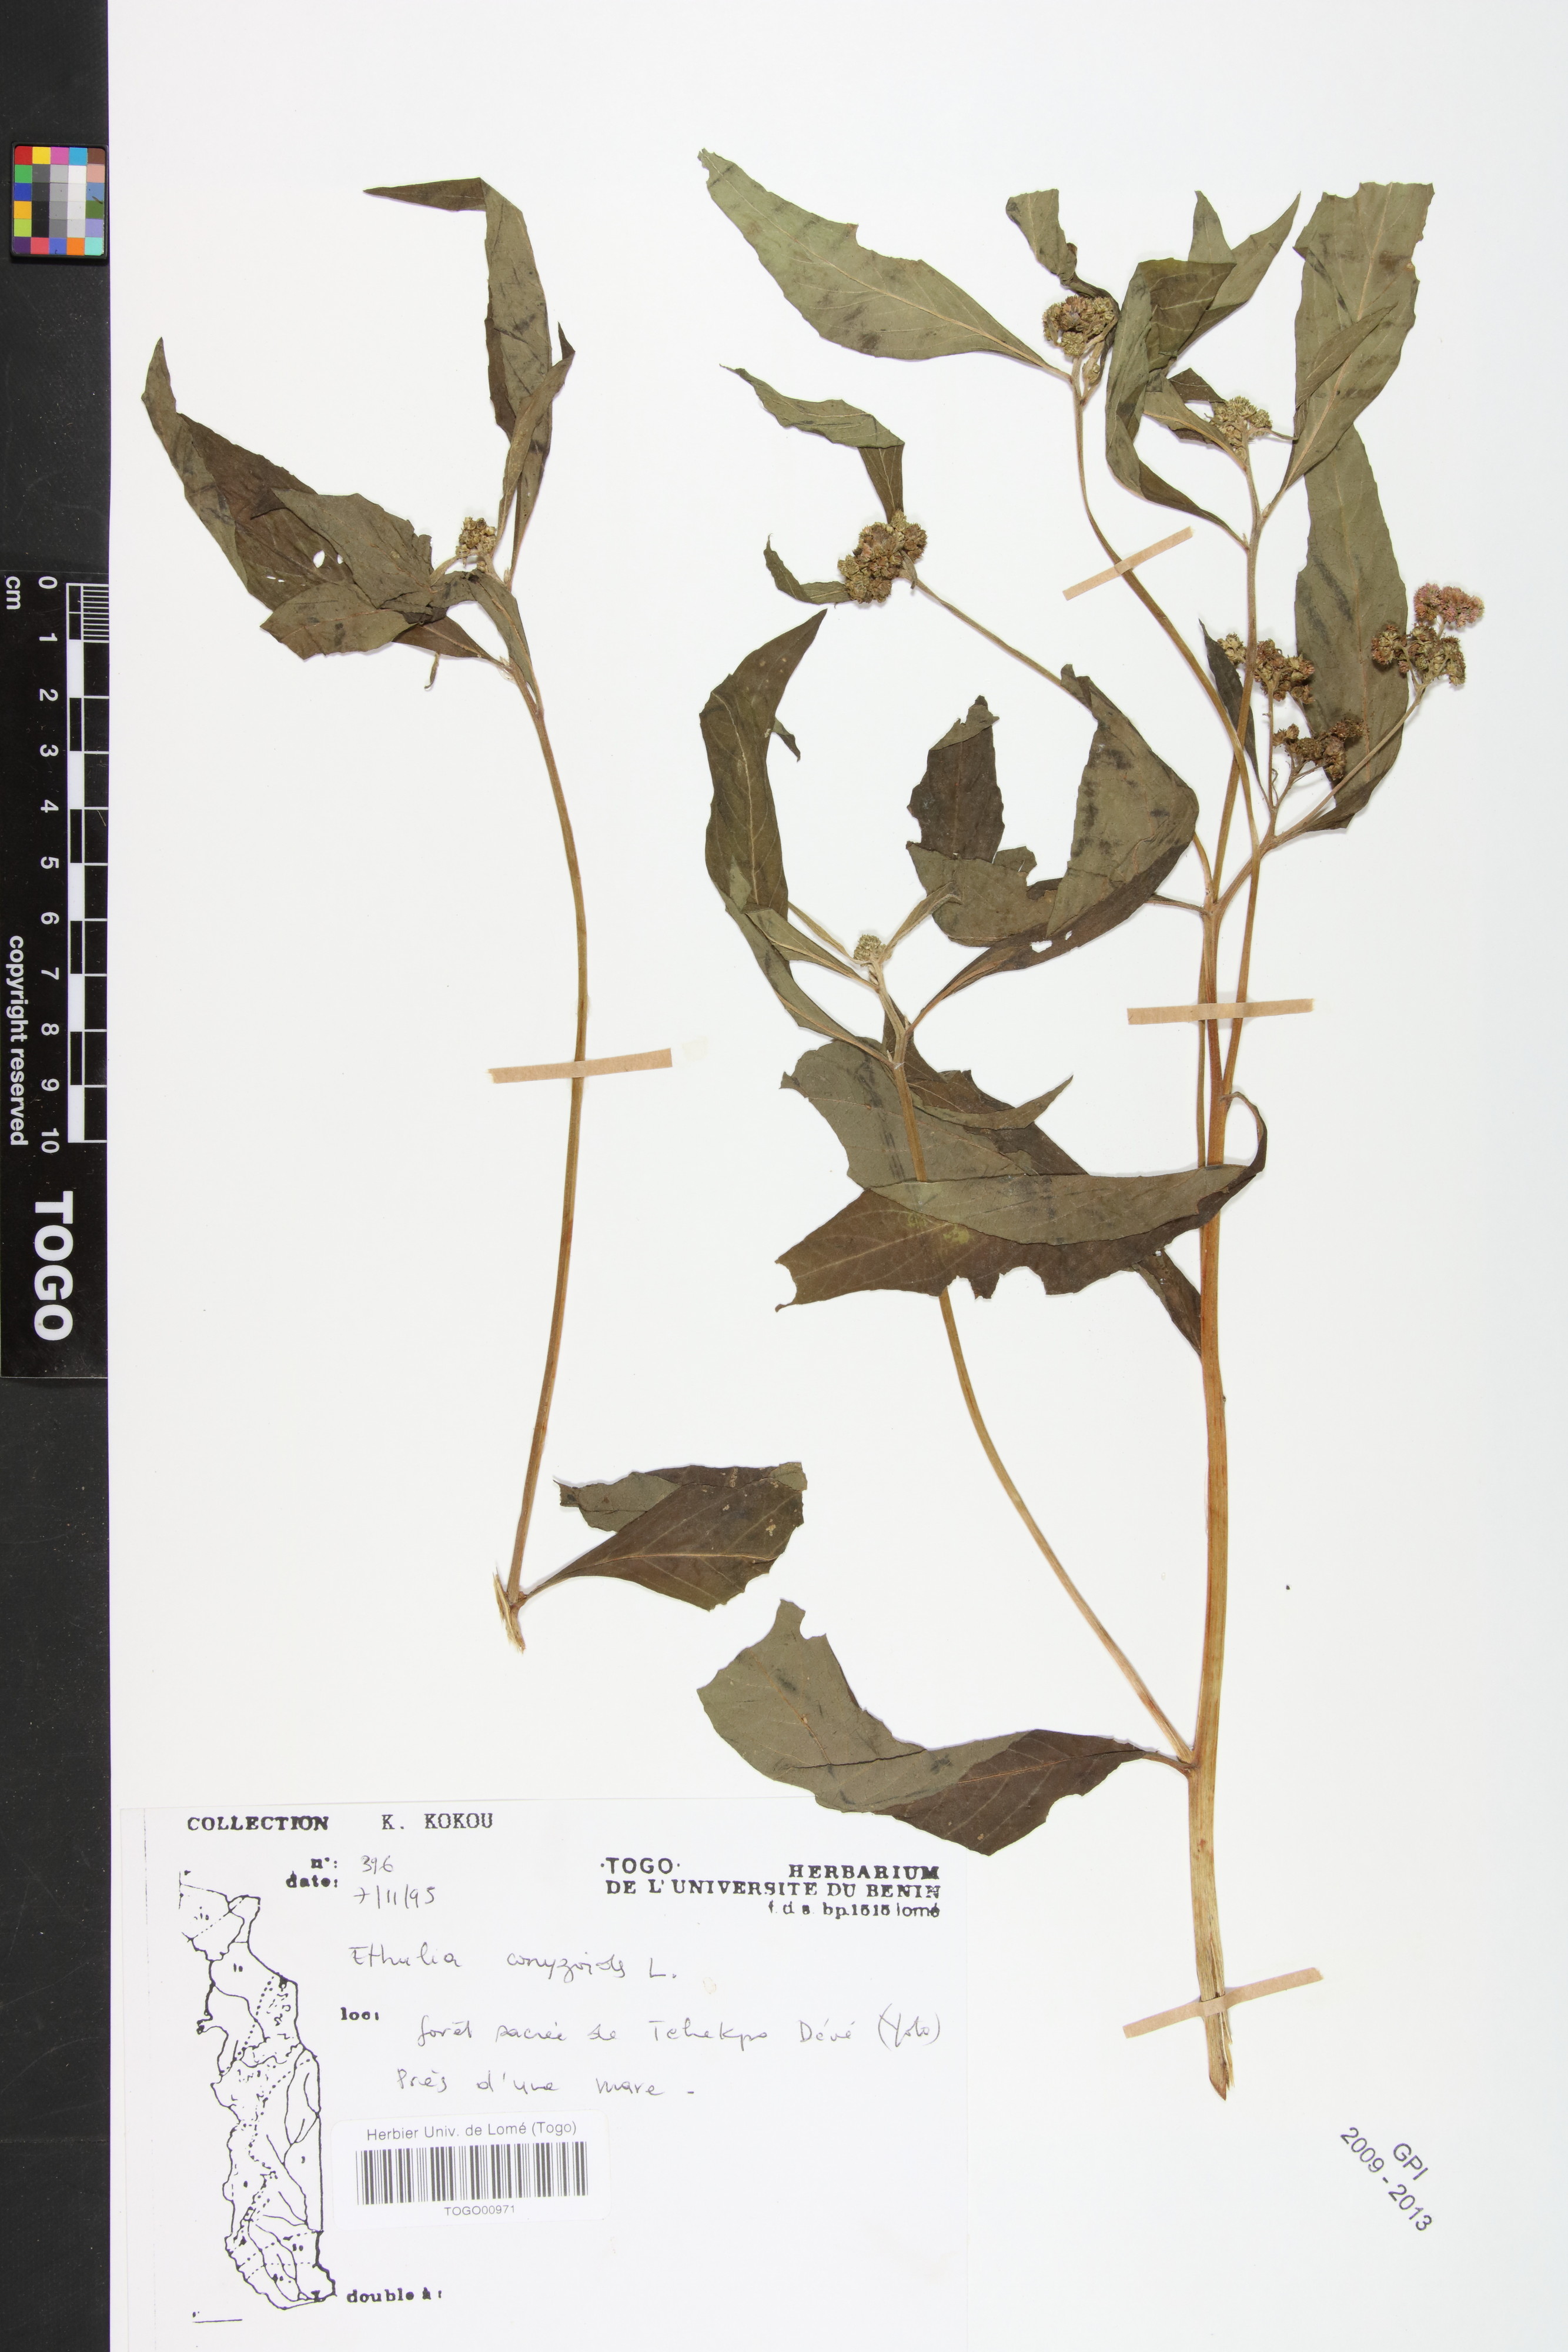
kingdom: Plantae
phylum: Tracheophyta
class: Magnoliopsida
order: Asterales
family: Asteraceae
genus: Ethulia
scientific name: Ethulia conyzoides
